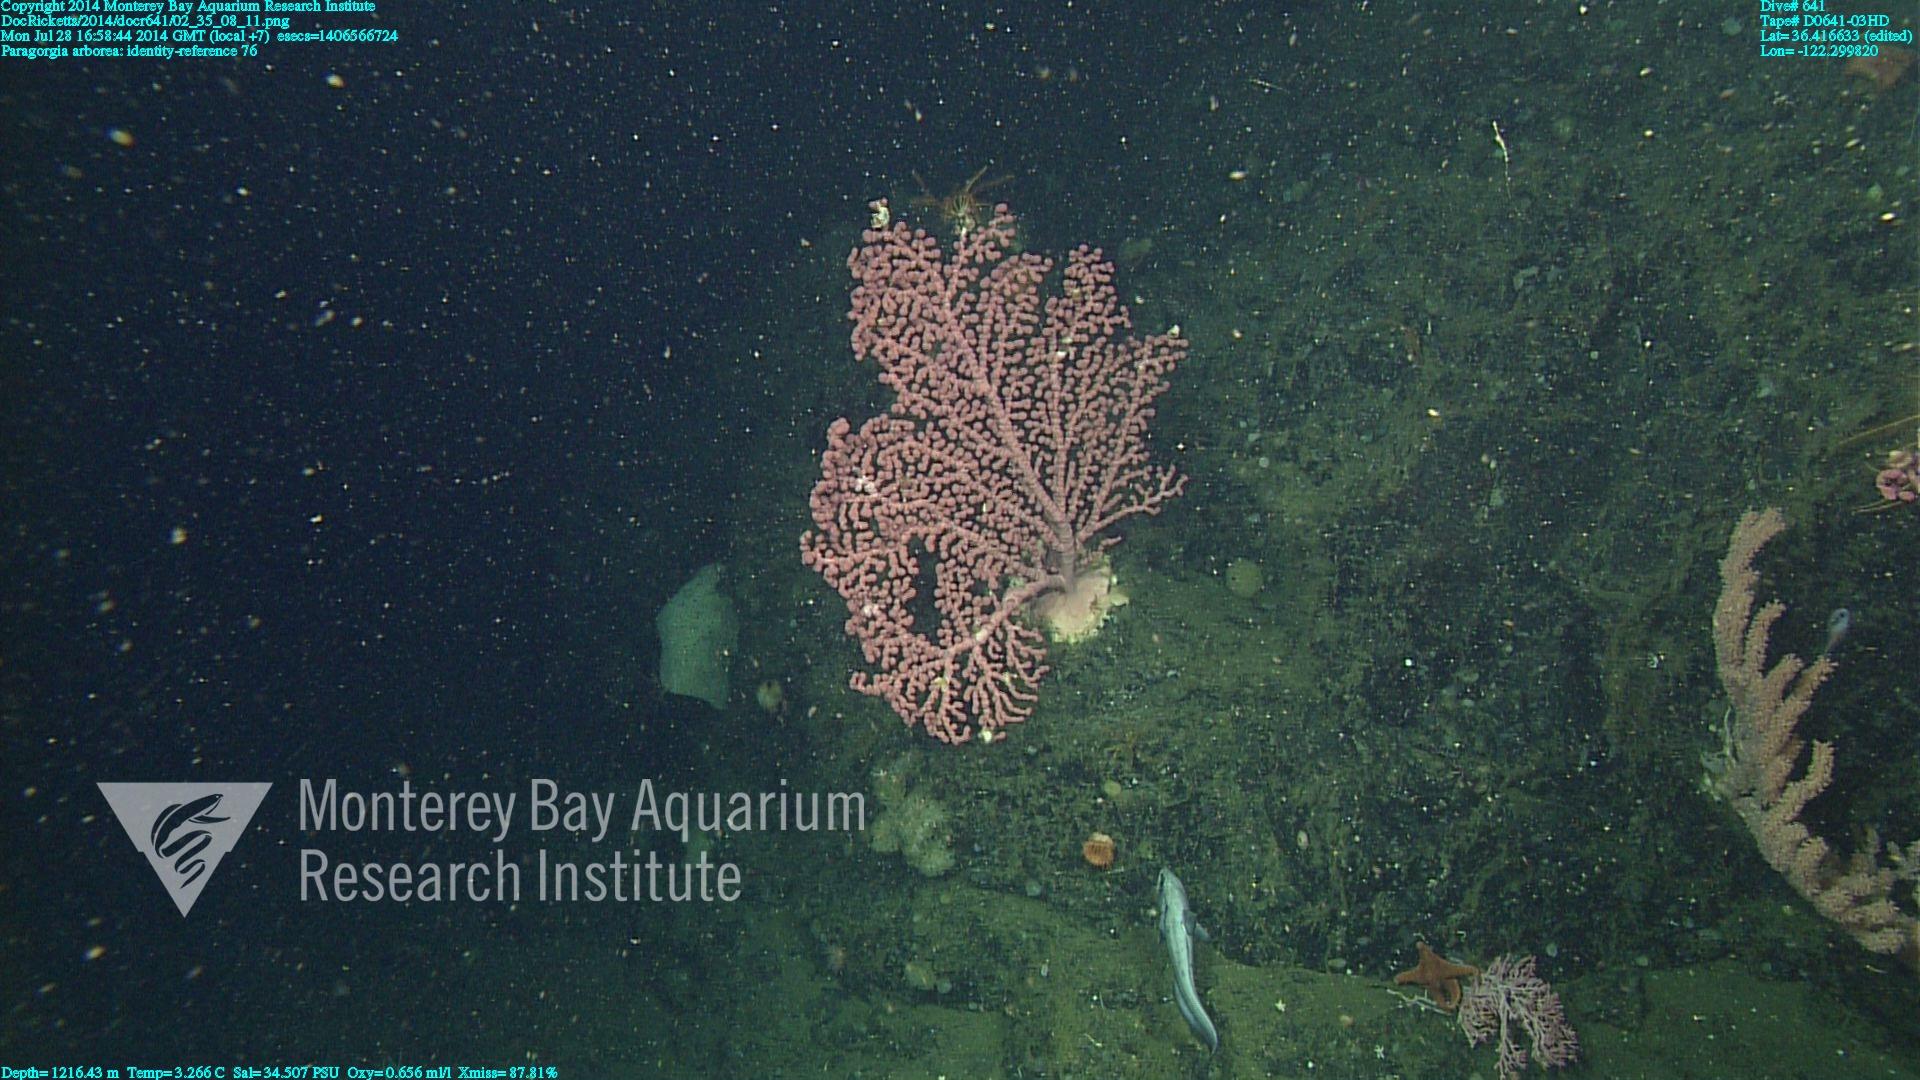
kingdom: Animalia
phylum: Cnidaria
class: Anthozoa
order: Scleralcyonacea
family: Coralliidae
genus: Paragorgia
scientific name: Paragorgia arborea
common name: Bubble gum coral
